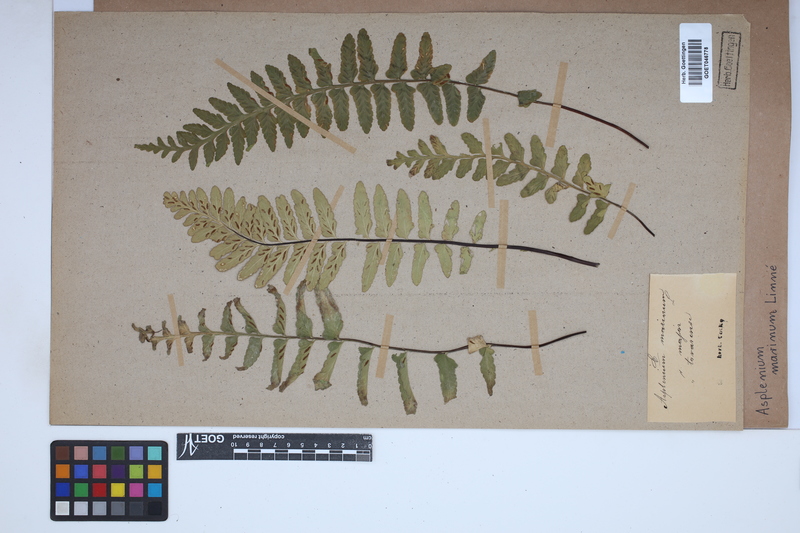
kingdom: Plantae
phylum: Tracheophyta
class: Polypodiopsida
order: Polypodiales
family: Aspleniaceae
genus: Asplenium
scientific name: Asplenium marinum
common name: Sea spleenwort
